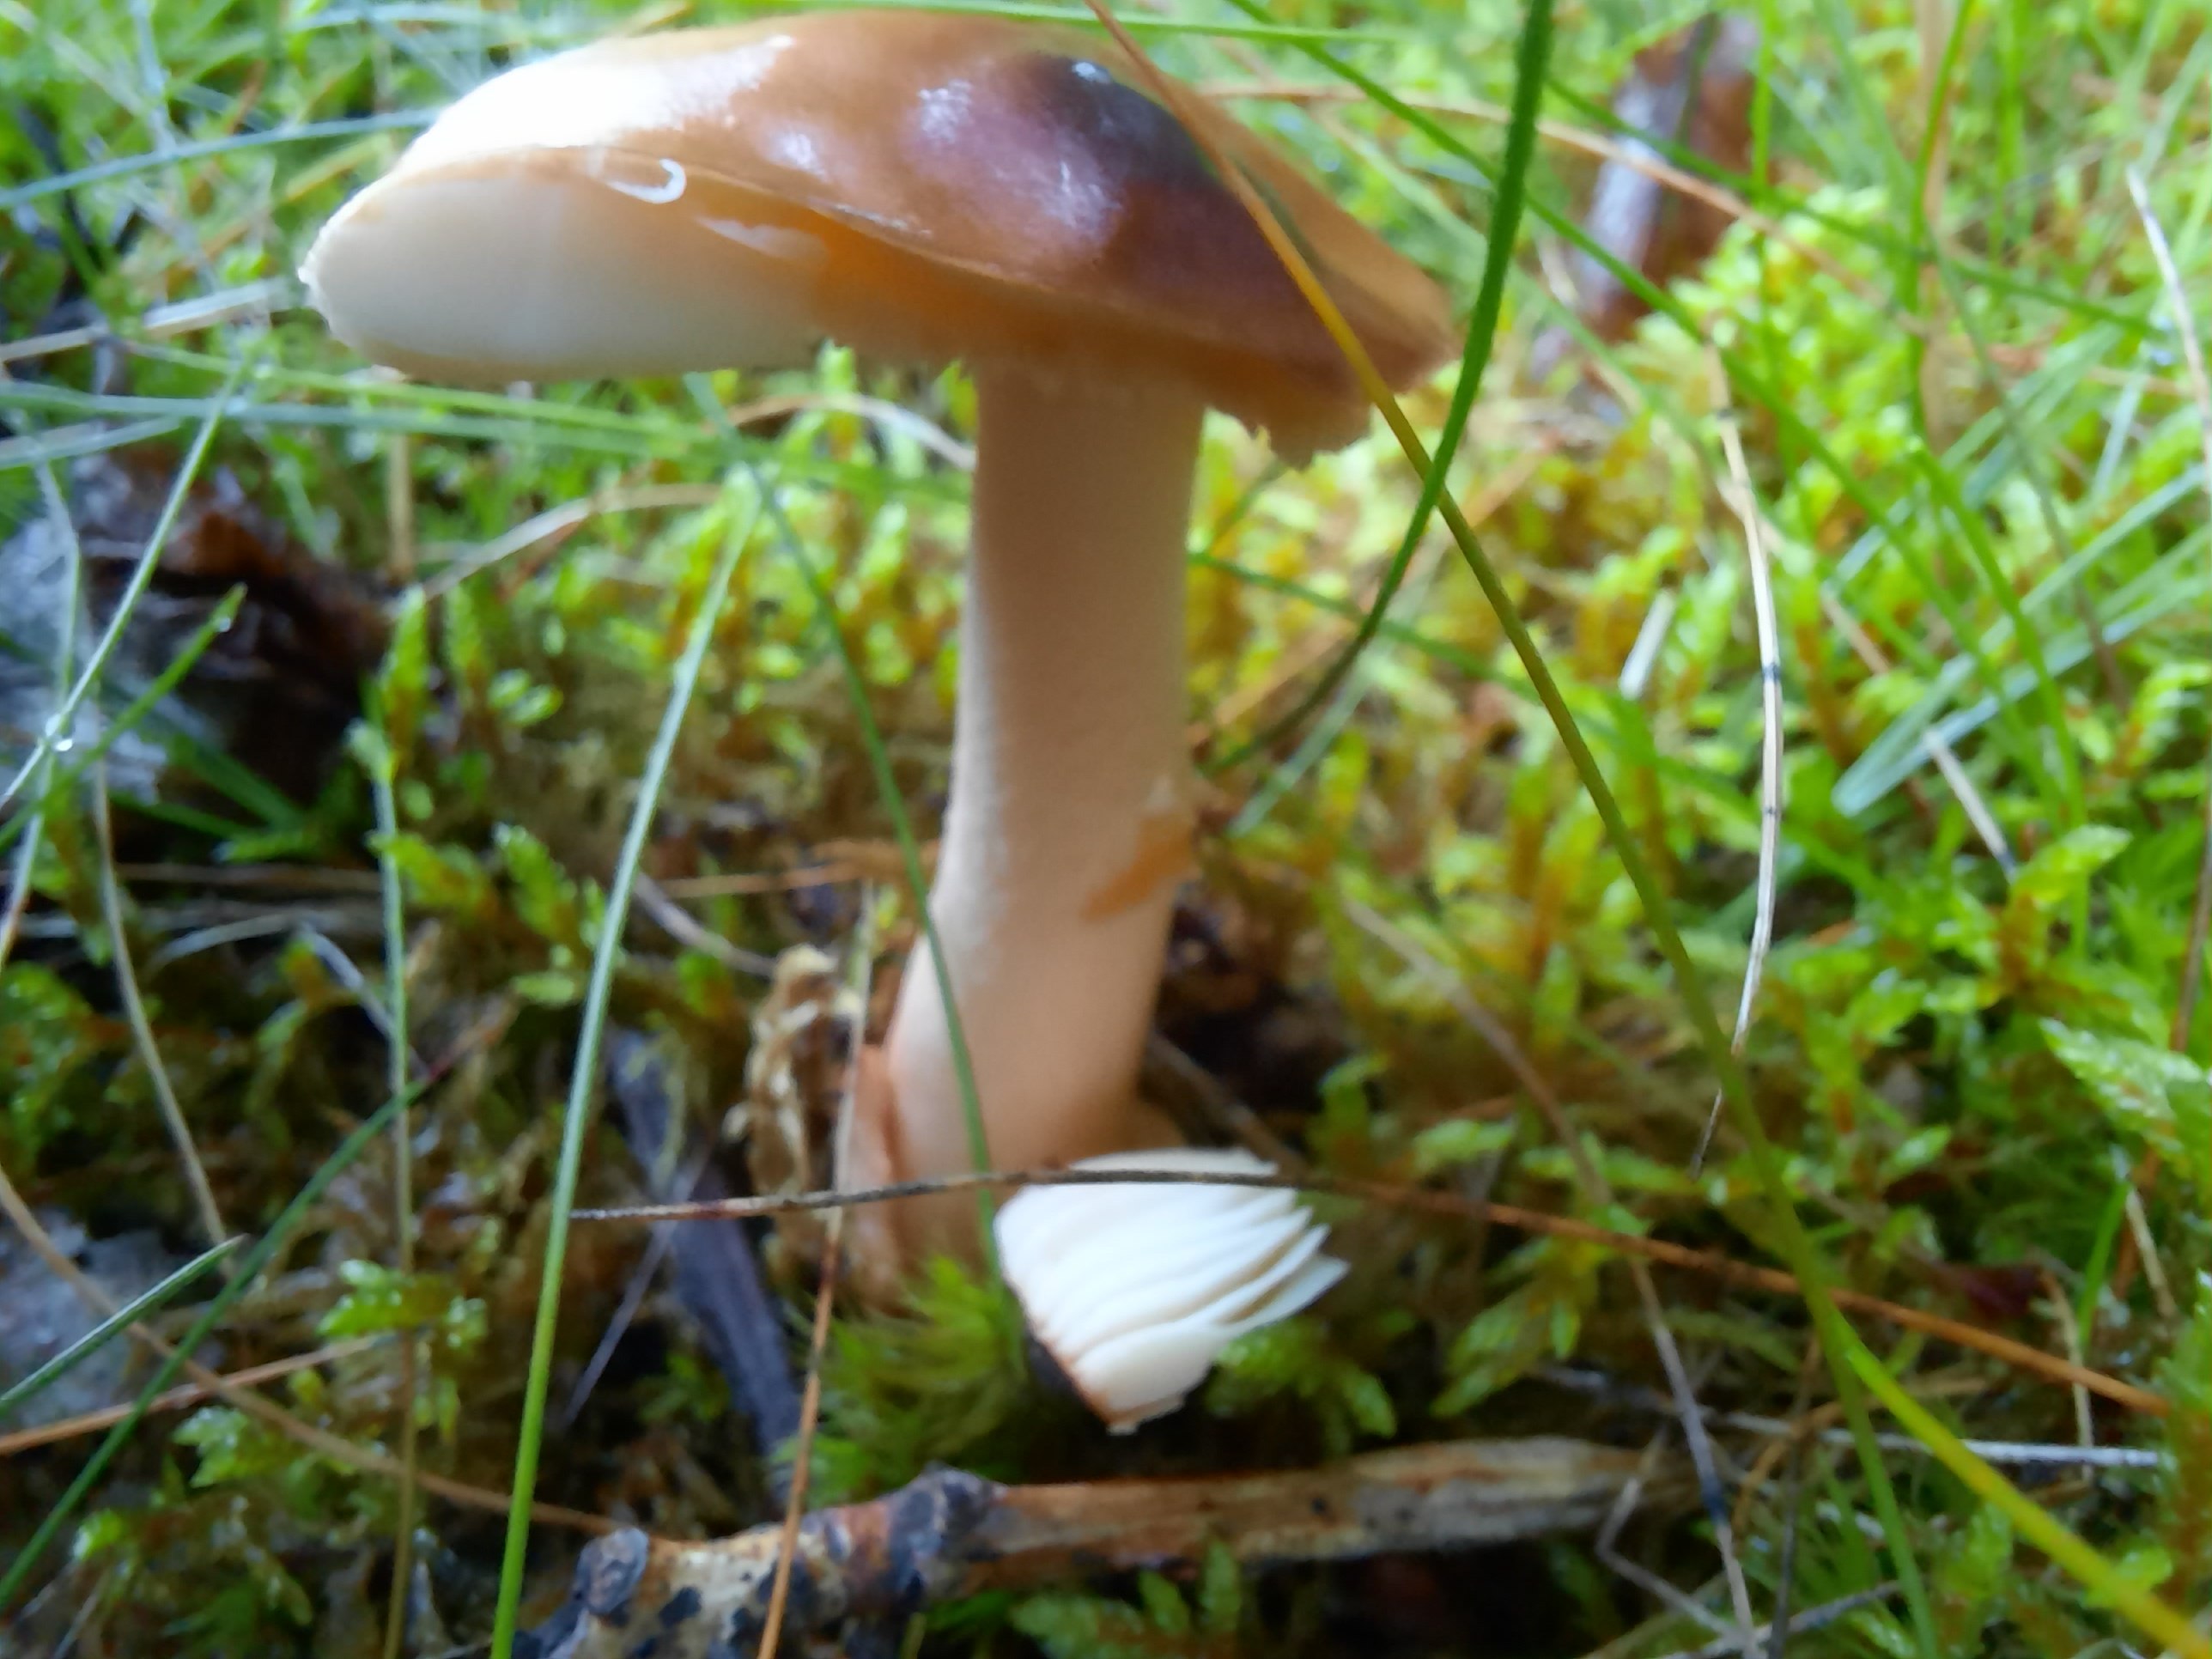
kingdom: Fungi
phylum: Basidiomycota
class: Agaricomycetes
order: Agaricales
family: Amanitaceae
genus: Amanita
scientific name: Amanita fulva
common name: brun kam-fluesvamp
